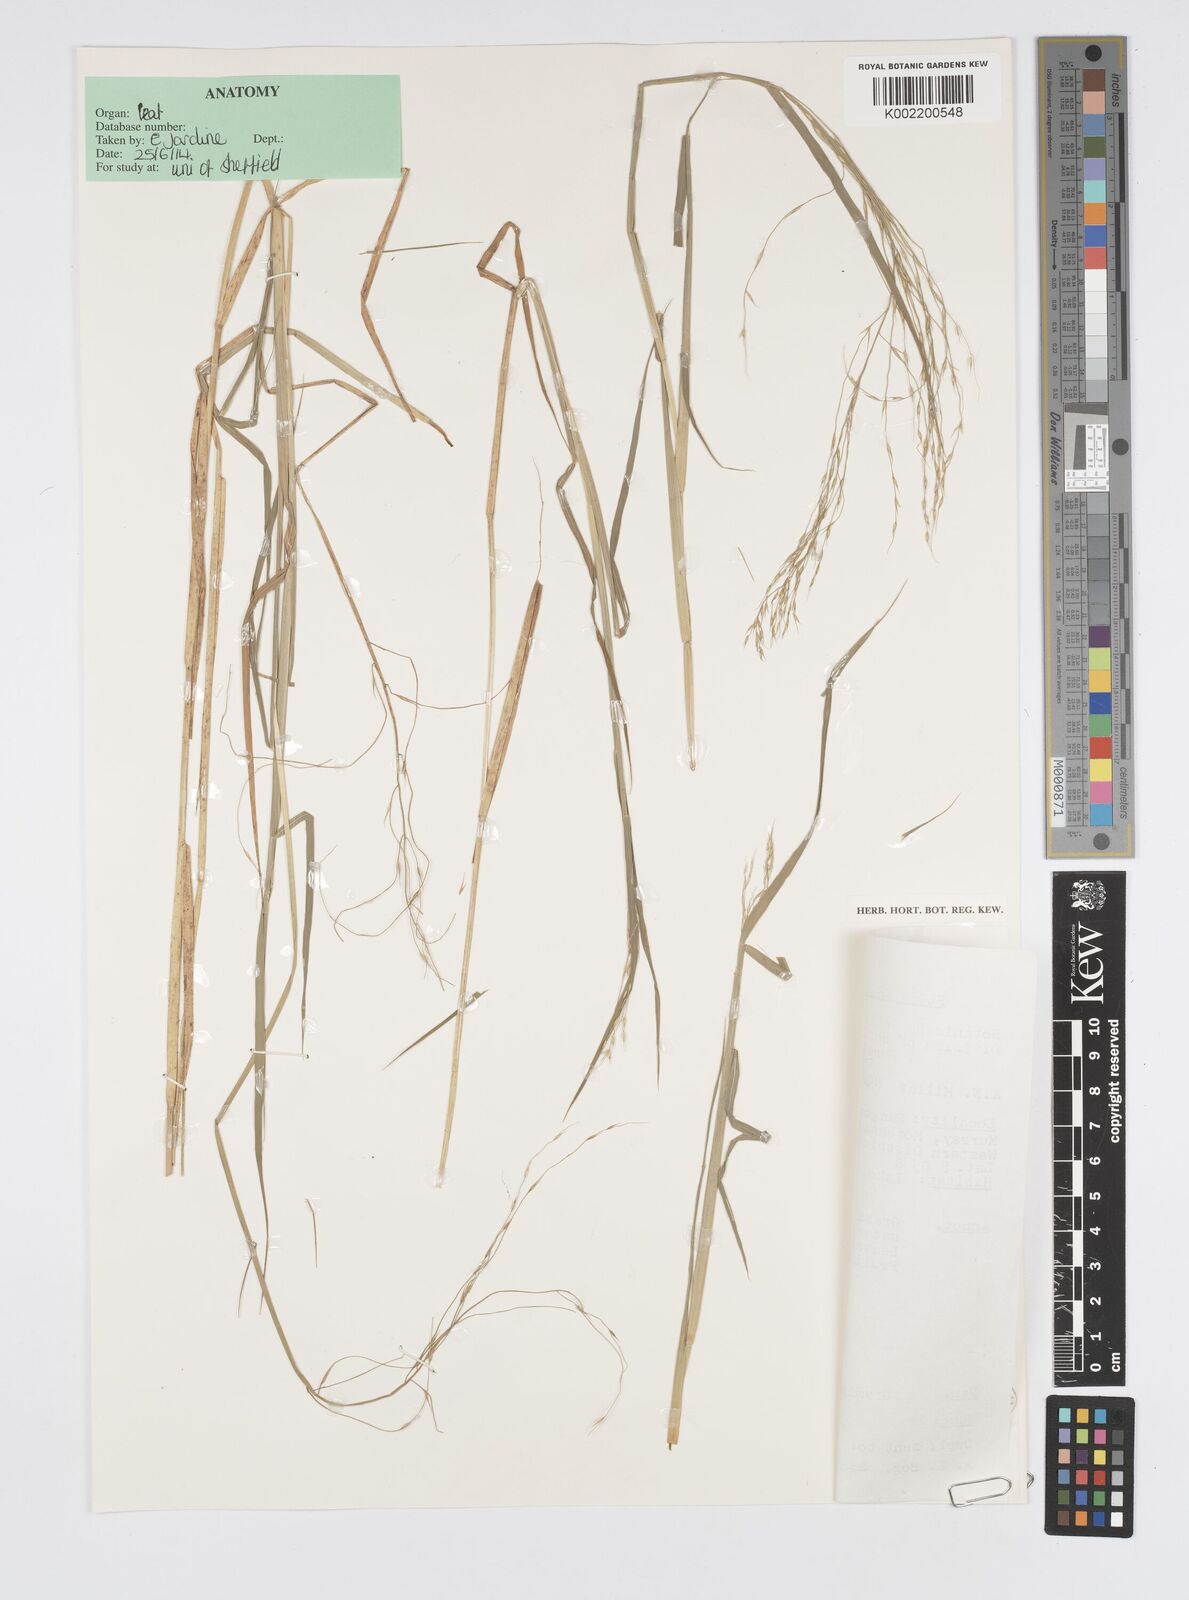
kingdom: Plantae
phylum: Tracheophyta
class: Liliopsida
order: Poales
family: Poaceae
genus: Pseudoraphis
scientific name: Pseudoraphis spinescens
